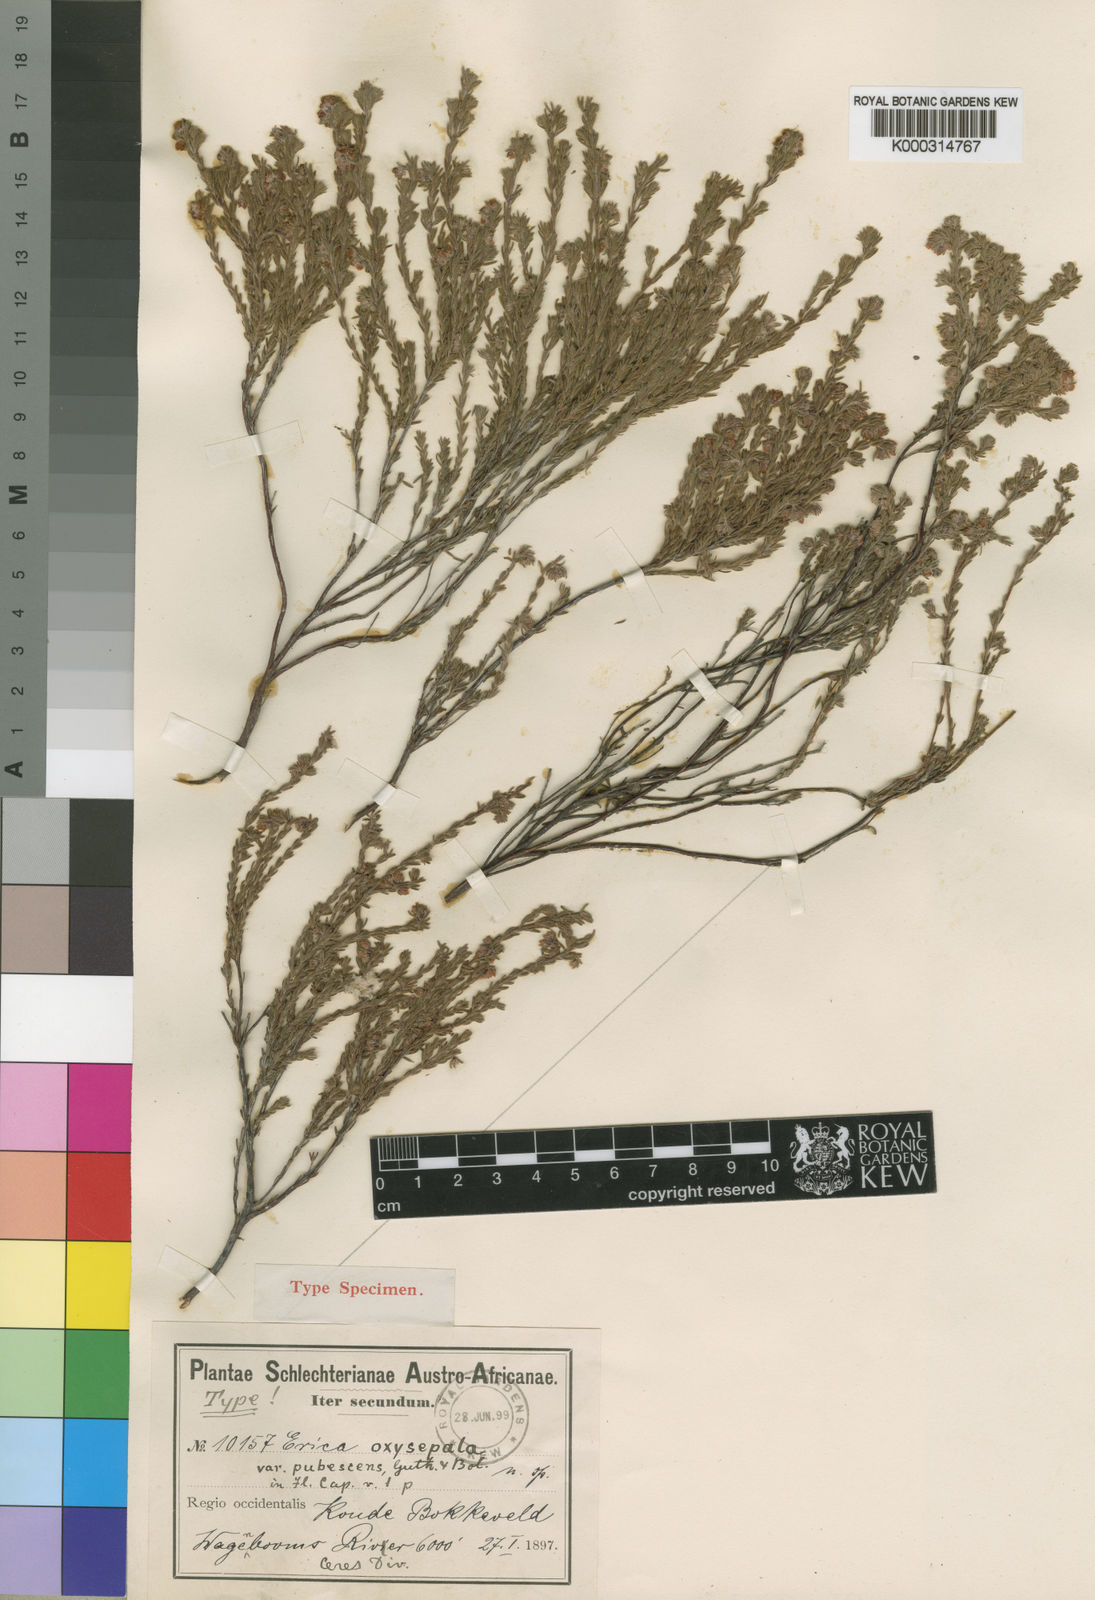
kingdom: Plantae
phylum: Tracheophyta
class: Magnoliopsida
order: Ericales
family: Ericaceae
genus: Erica
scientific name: Erica oxysepala
